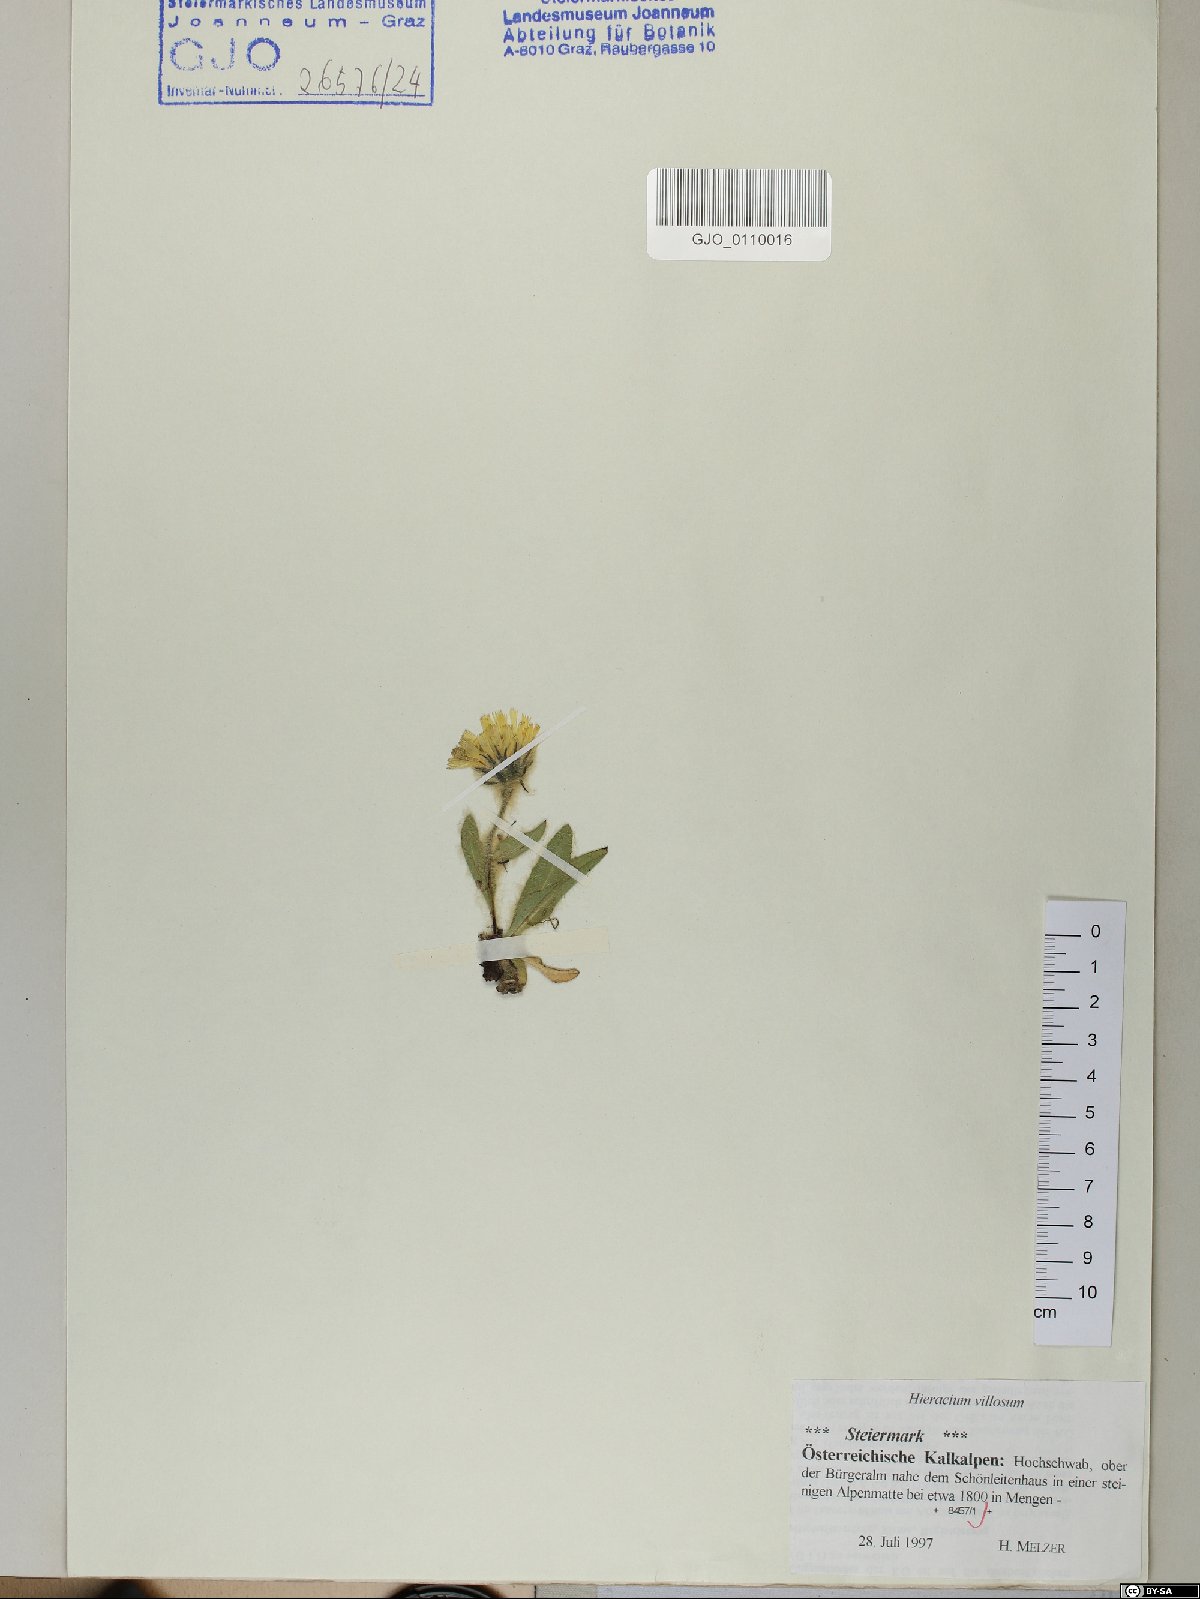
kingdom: Plantae
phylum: Tracheophyta
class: Magnoliopsida
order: Asterales
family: Asteraceae
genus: Hieracium
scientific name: Hieracium villosum
